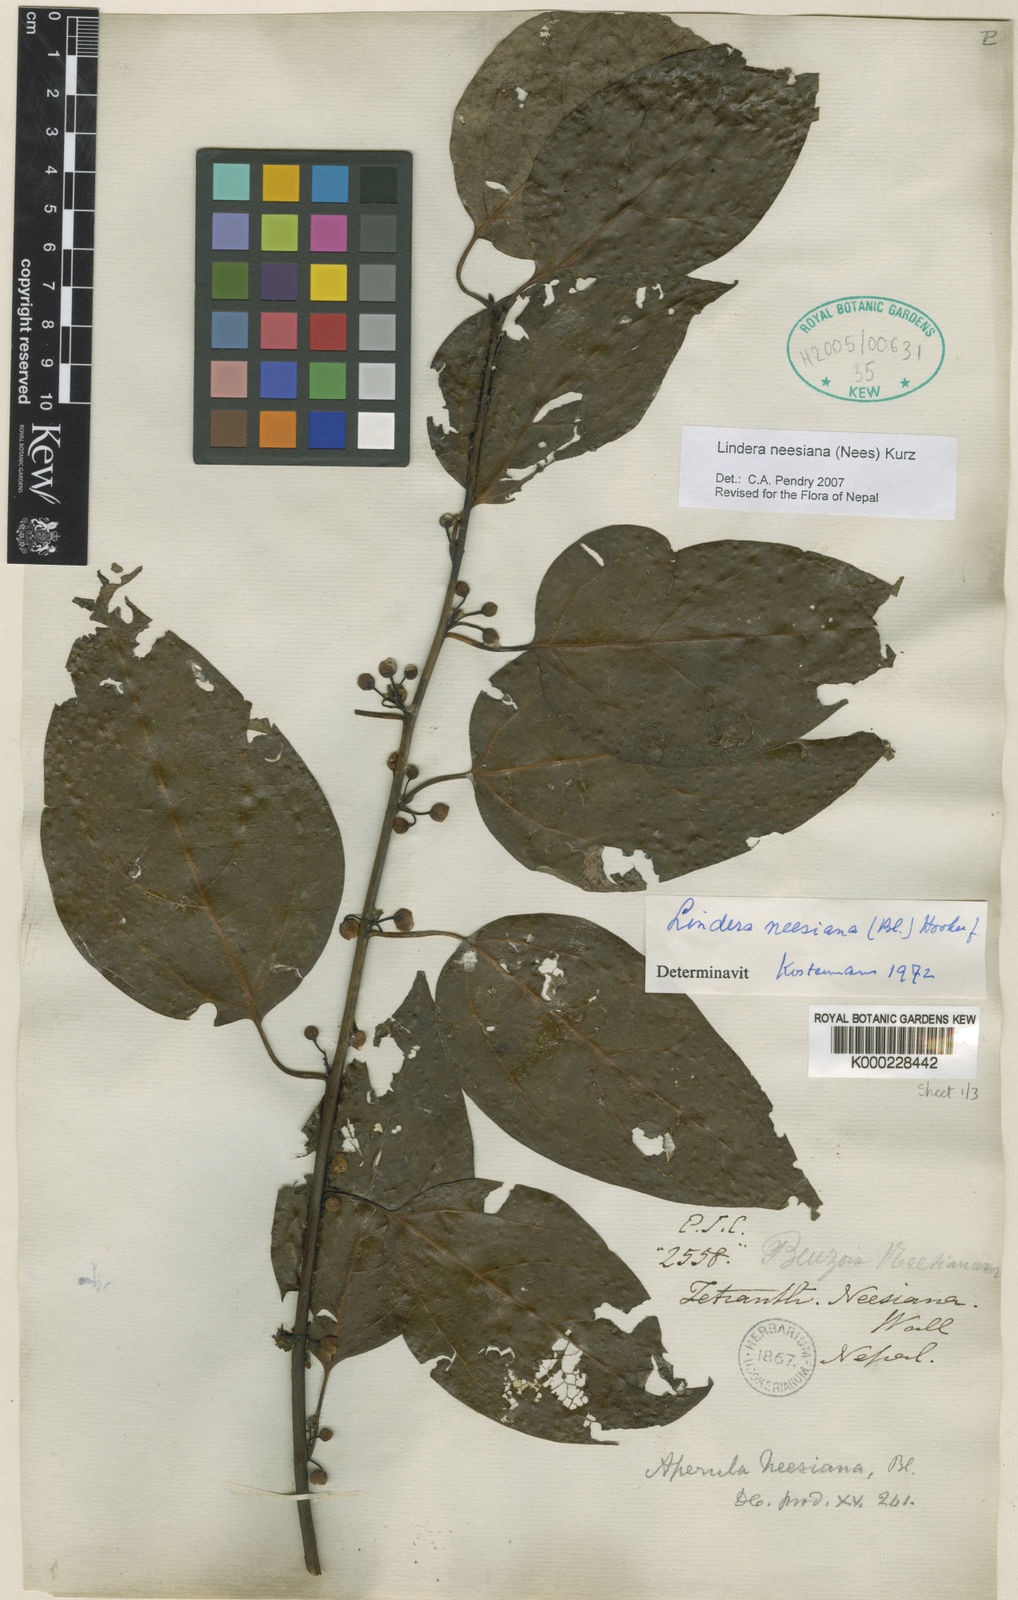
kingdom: Plantae
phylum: Tracheophyta
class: Magnoliopsida
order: Laurales
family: Lauraceae
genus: Lindera
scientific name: Lindera
